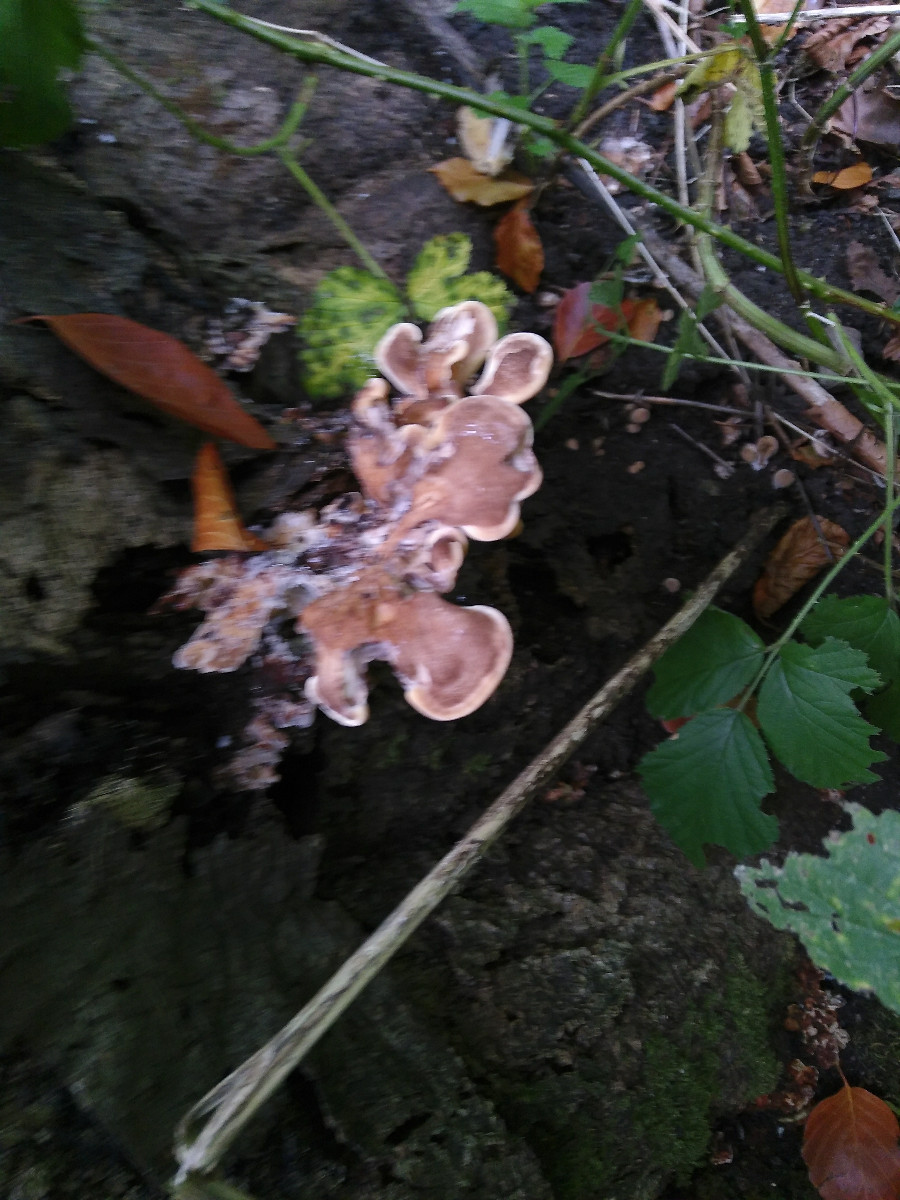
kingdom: Fungi
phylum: Basidiomycota
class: Agaricomycetes
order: Polyporales
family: Meripilaceae
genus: Meripilus
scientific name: Meripilus giganteus
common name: kæmpeporesvamp
